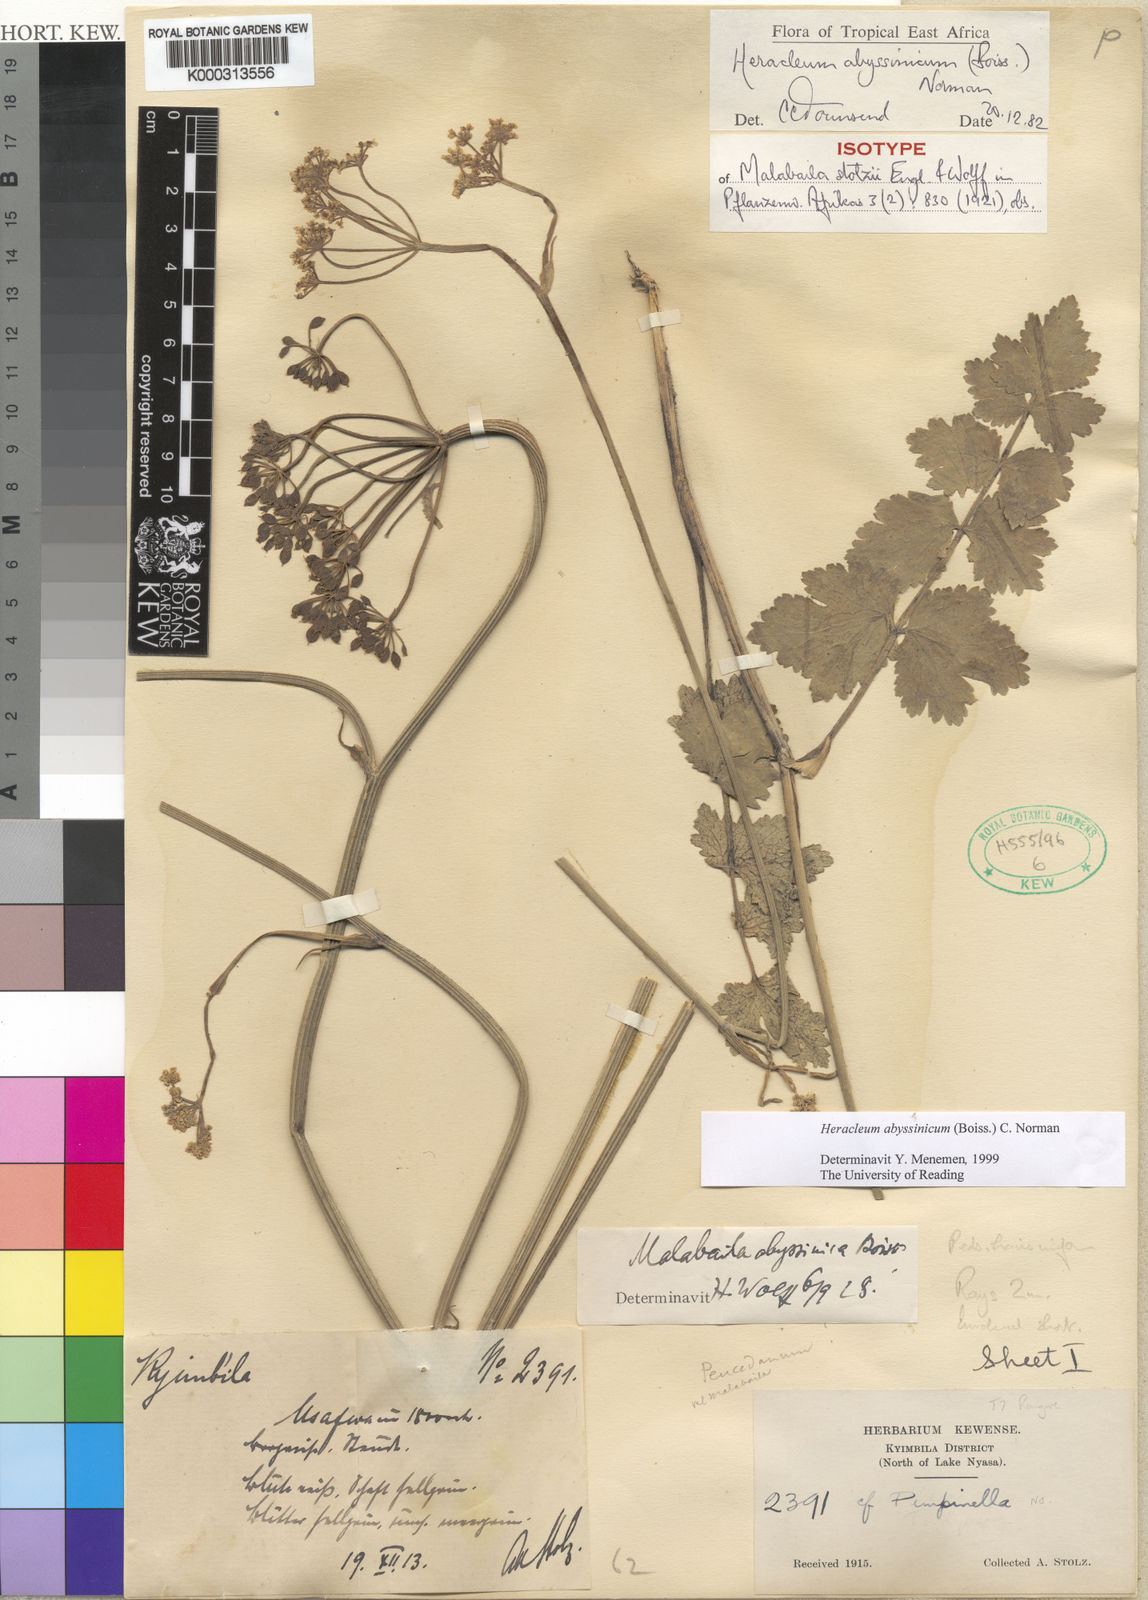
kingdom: Plantae
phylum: Tracheophyta
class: Magnoliopsida
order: Apiales
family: Apiaceae
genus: Heracleum
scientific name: Heracleum abyssinicum
